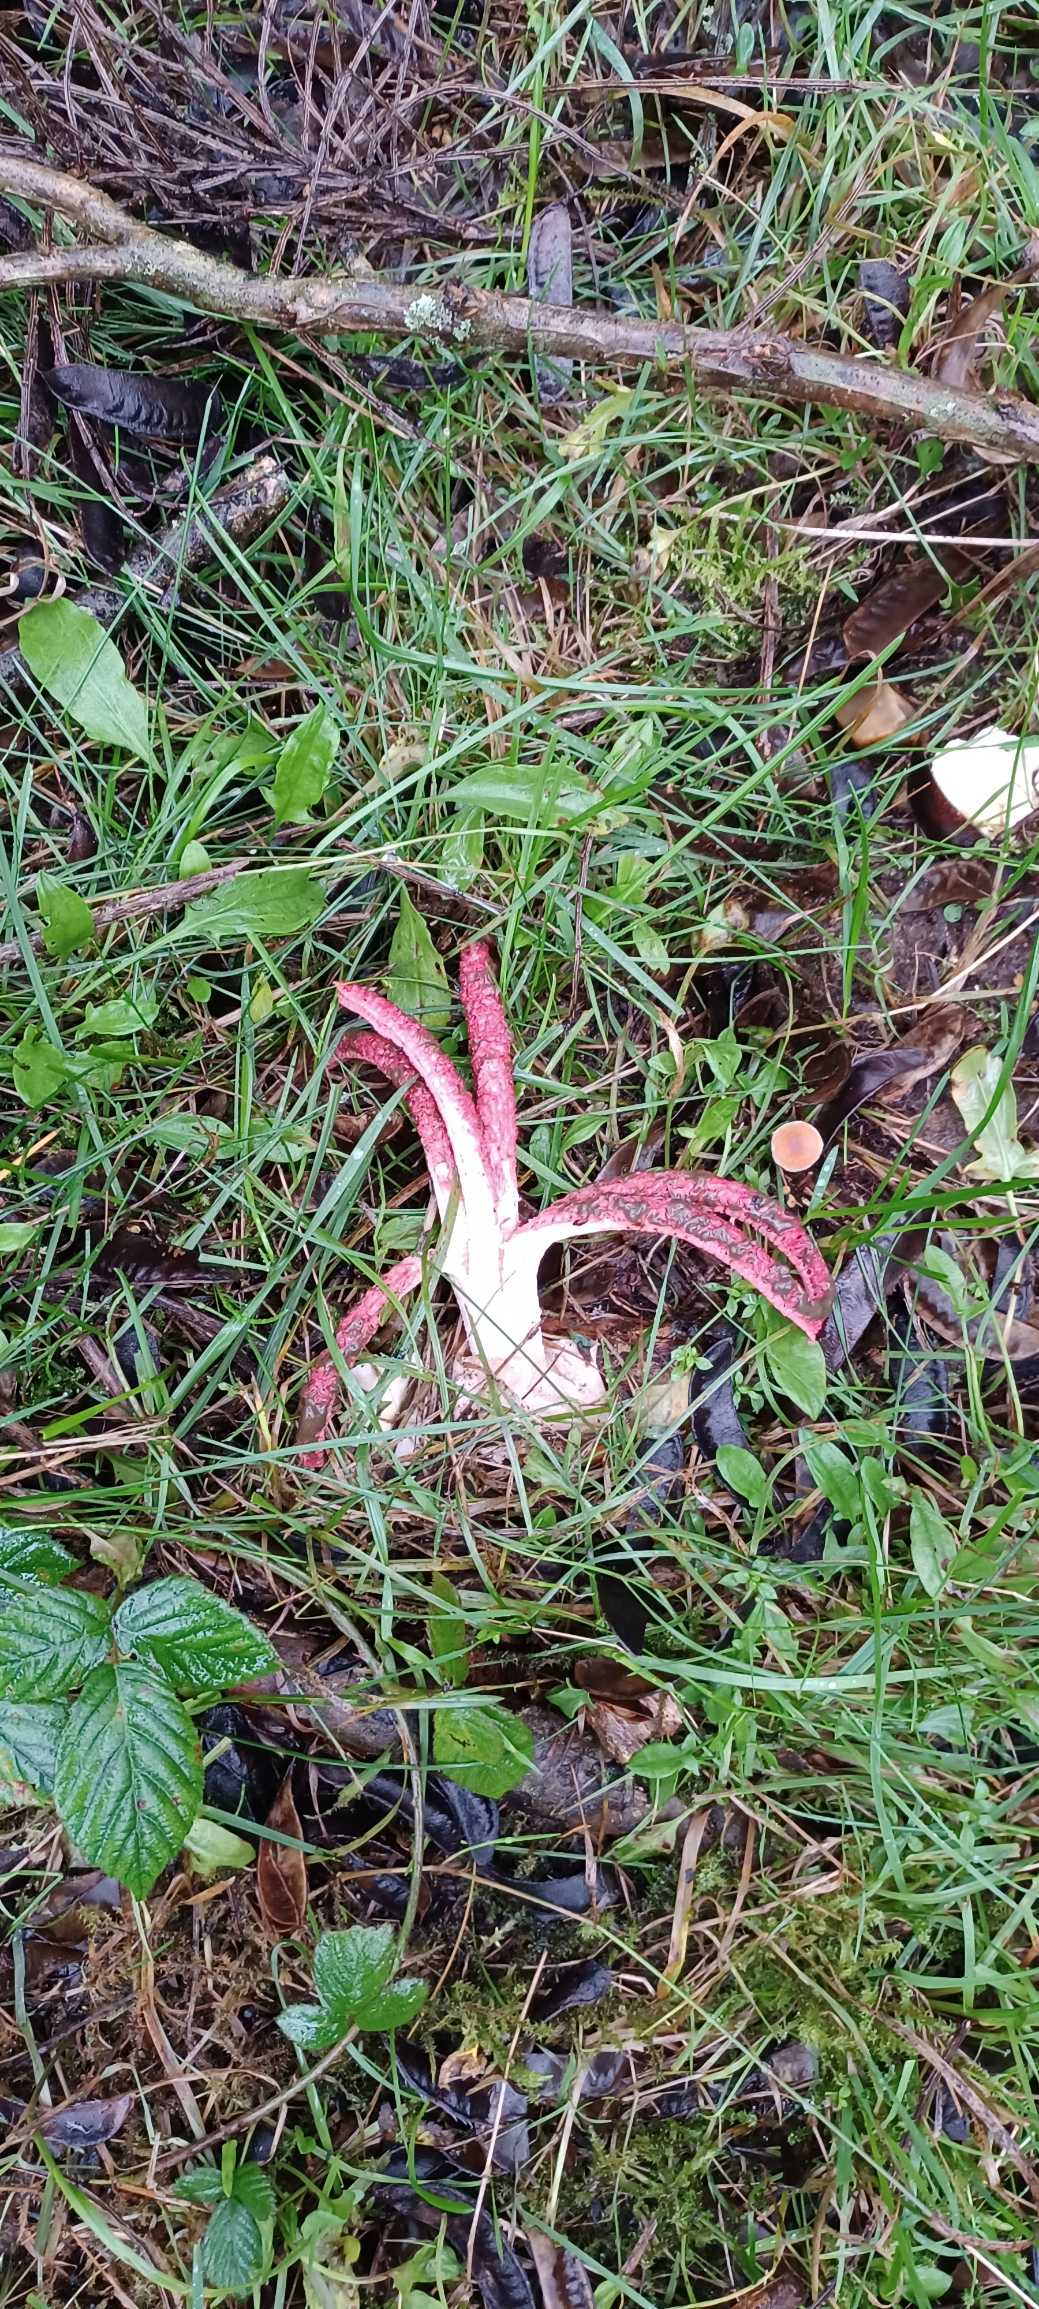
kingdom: Fungi
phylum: Basidiomycota
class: Agaricomycetes
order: Phallales
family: Phallaceae
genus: Clathrus
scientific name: Clathrus archeri
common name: Blækspruttesvamp
